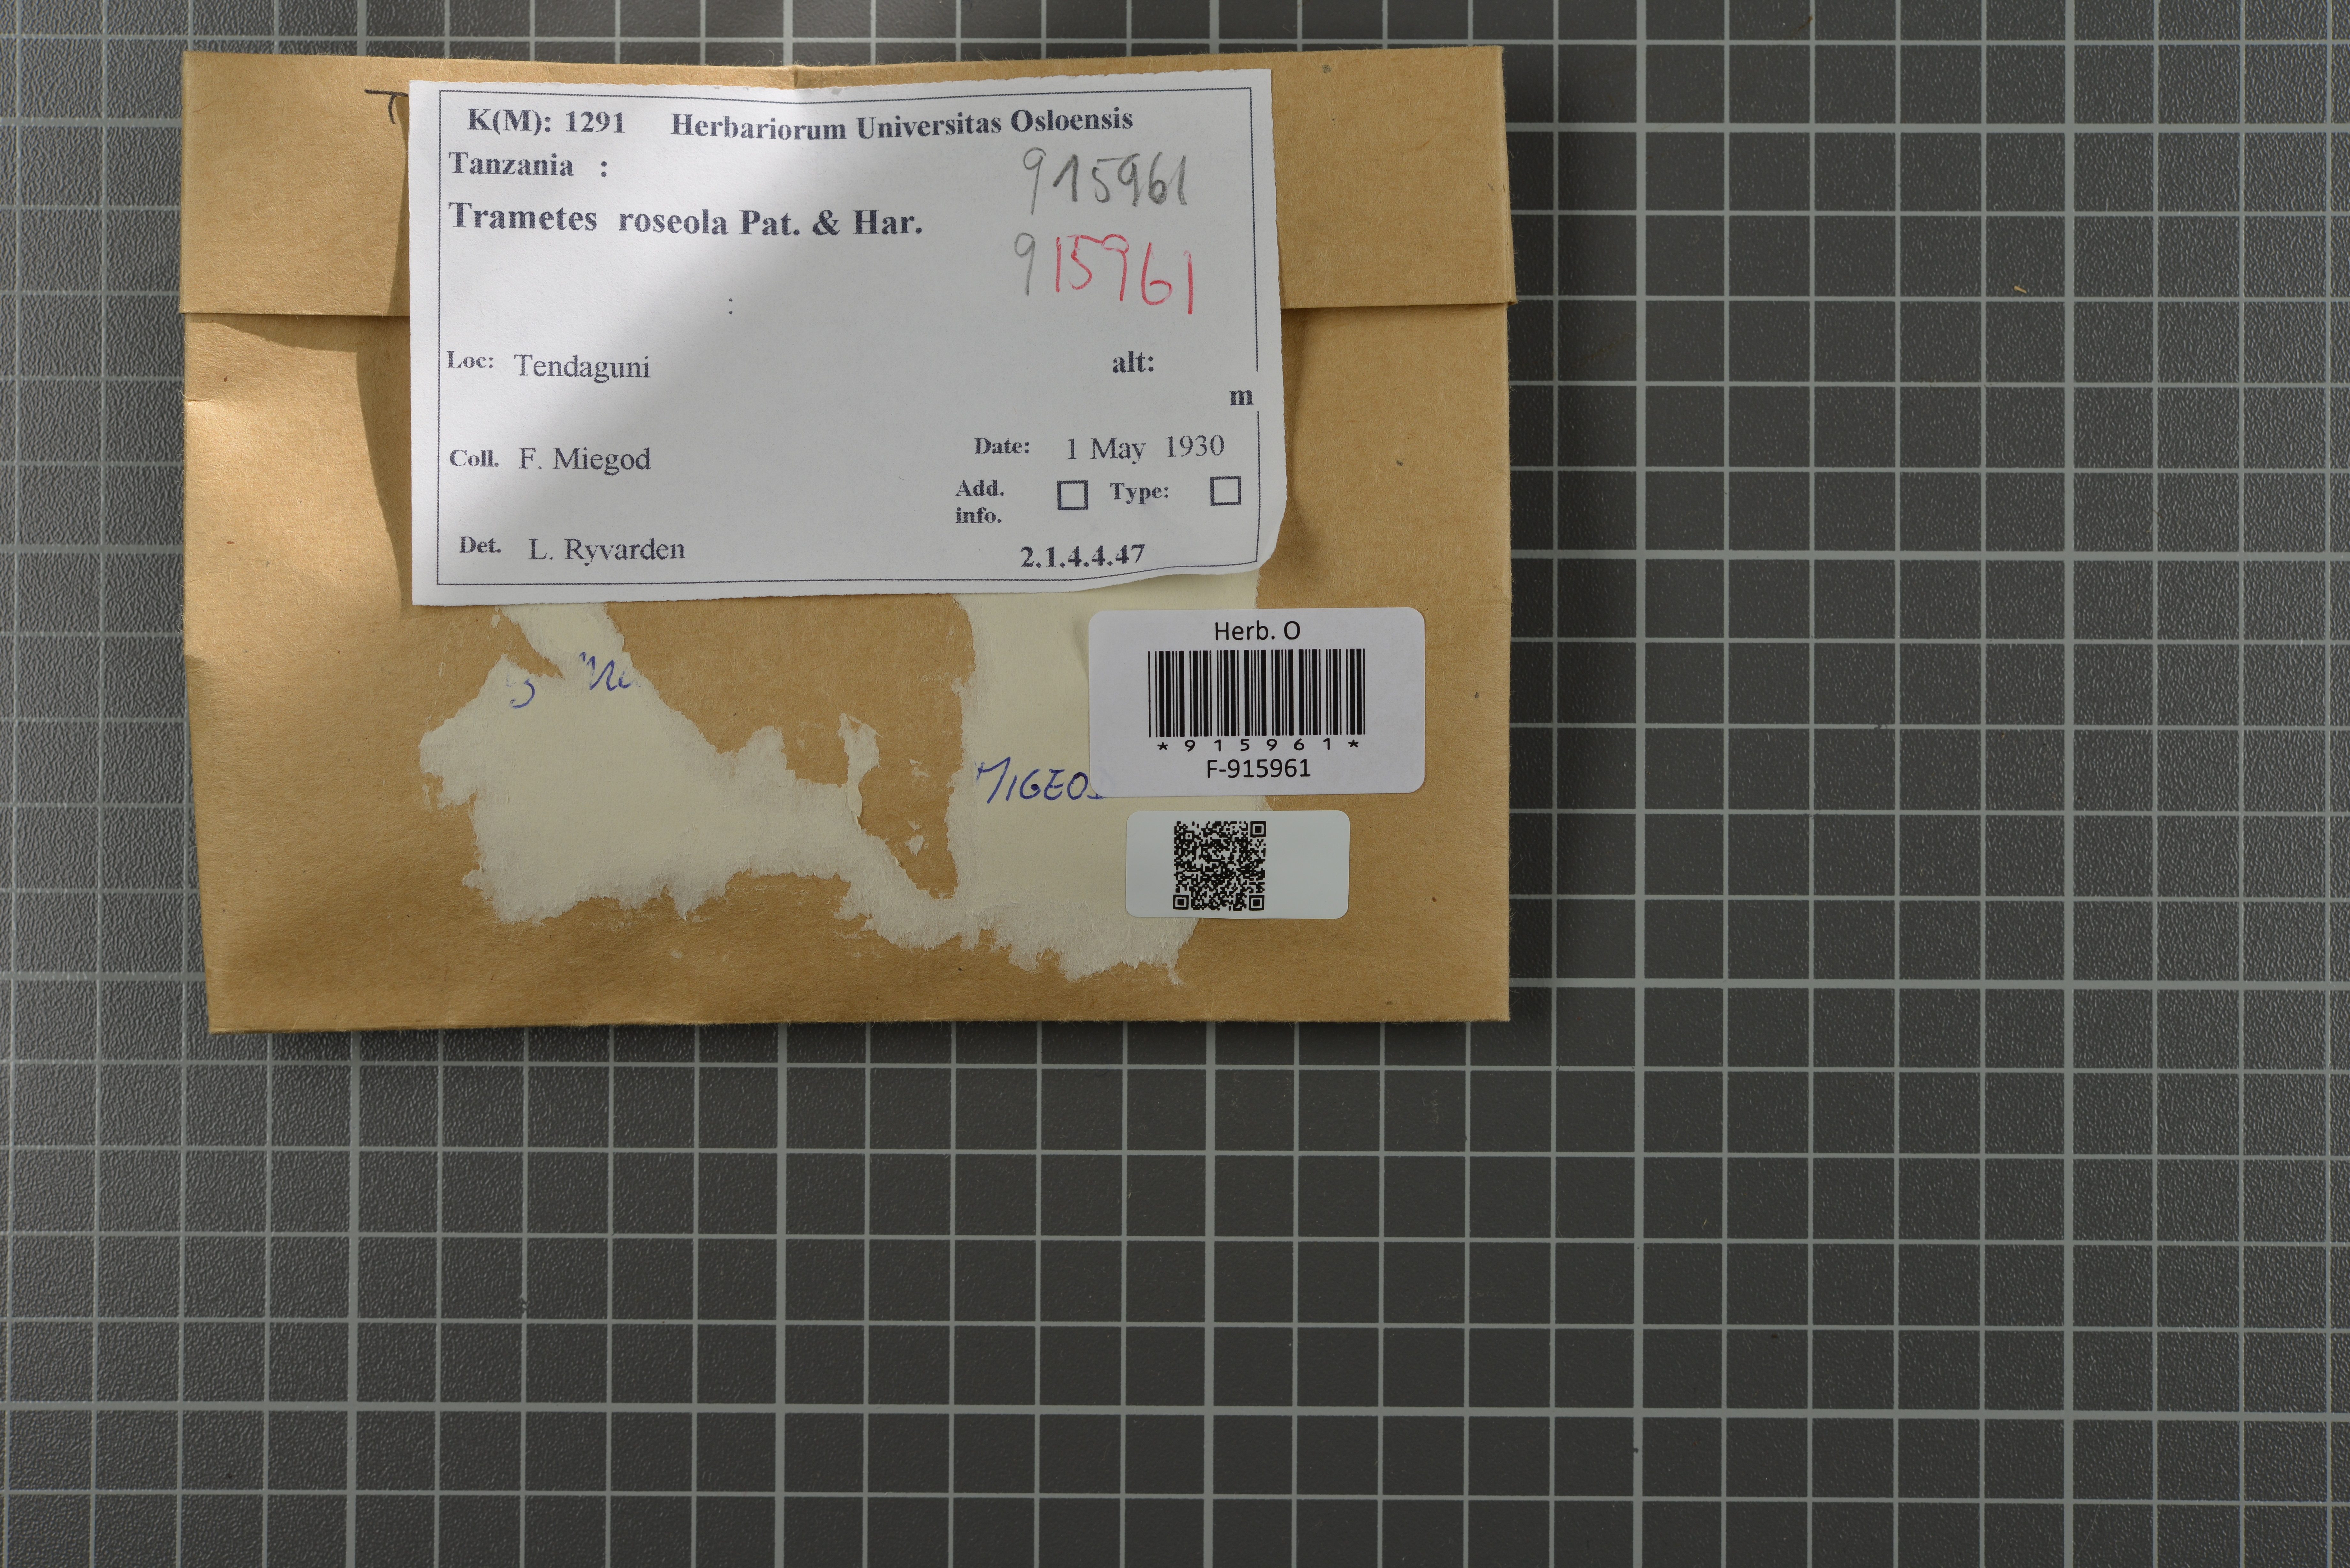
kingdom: Fungi
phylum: Basidiomycota
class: Agaricomycetes
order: Polyporales
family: Polyporaceae
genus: Trametes
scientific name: Trametes roseola
